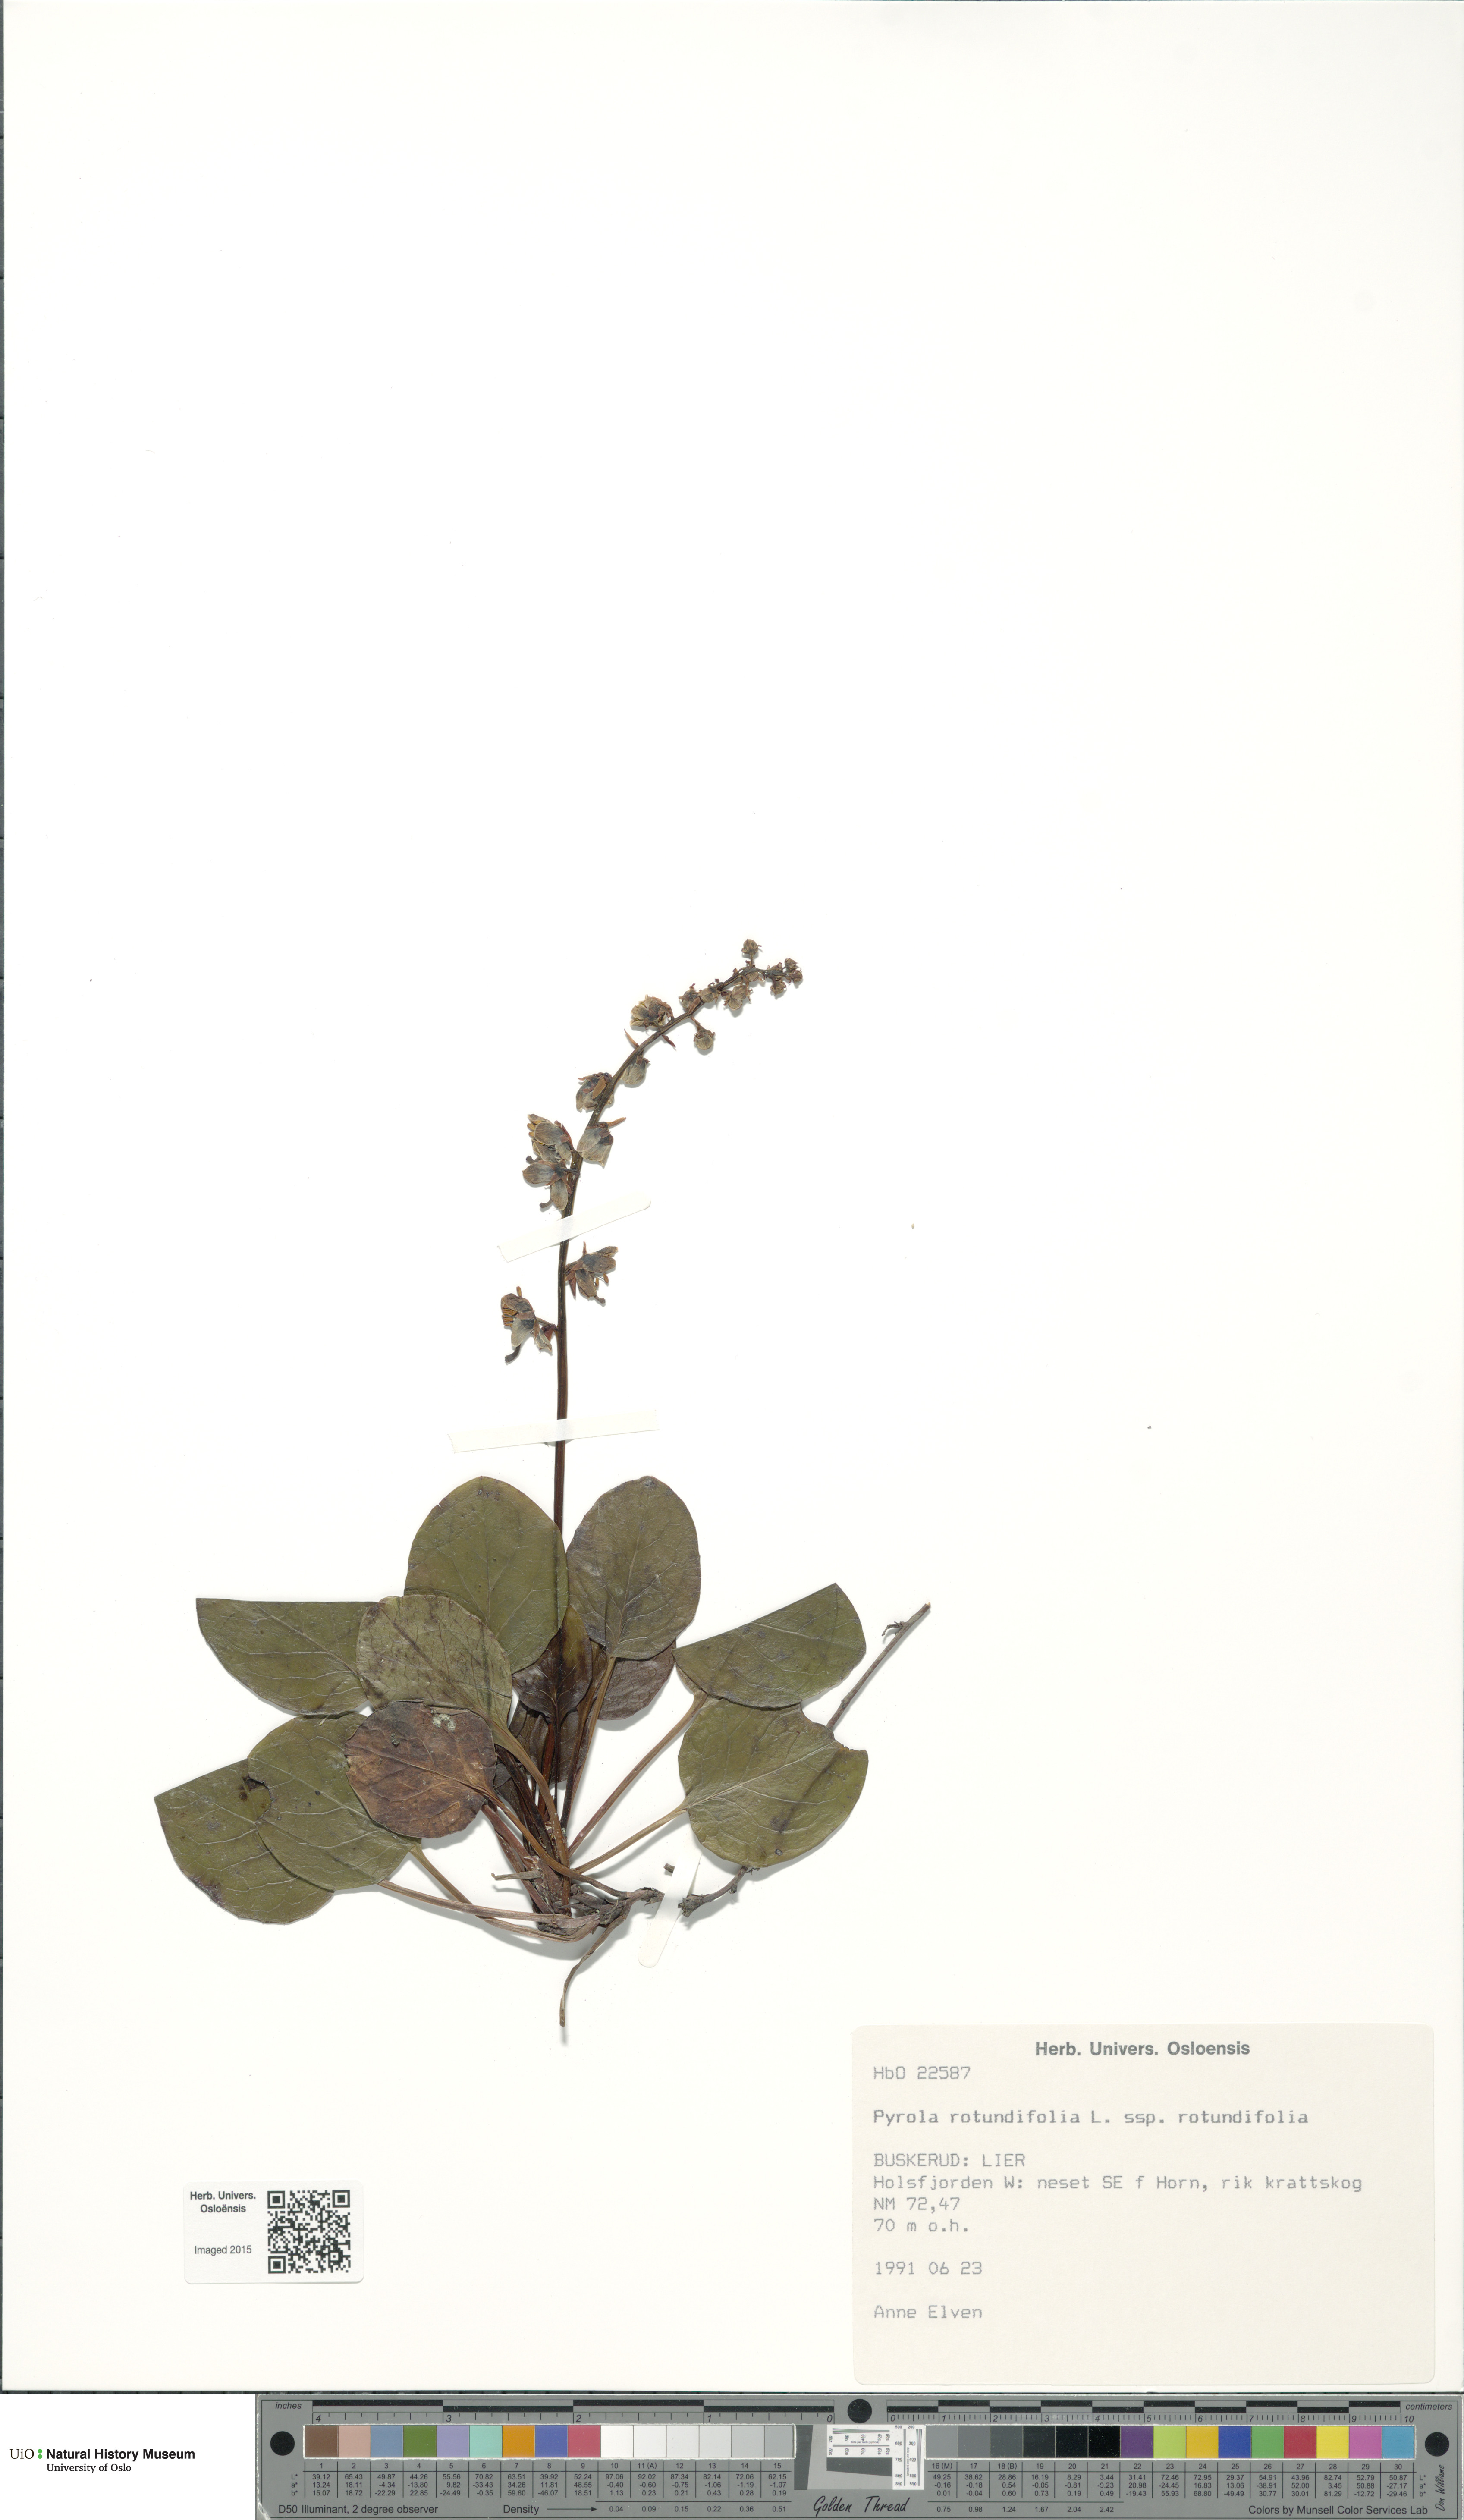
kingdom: Plantae
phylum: Tracheophyta
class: Magnoliopsida
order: Ericales
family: Ericaceae
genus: Pyrola
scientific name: Pyrola rotundifolia
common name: Round-leaved wintergreen
